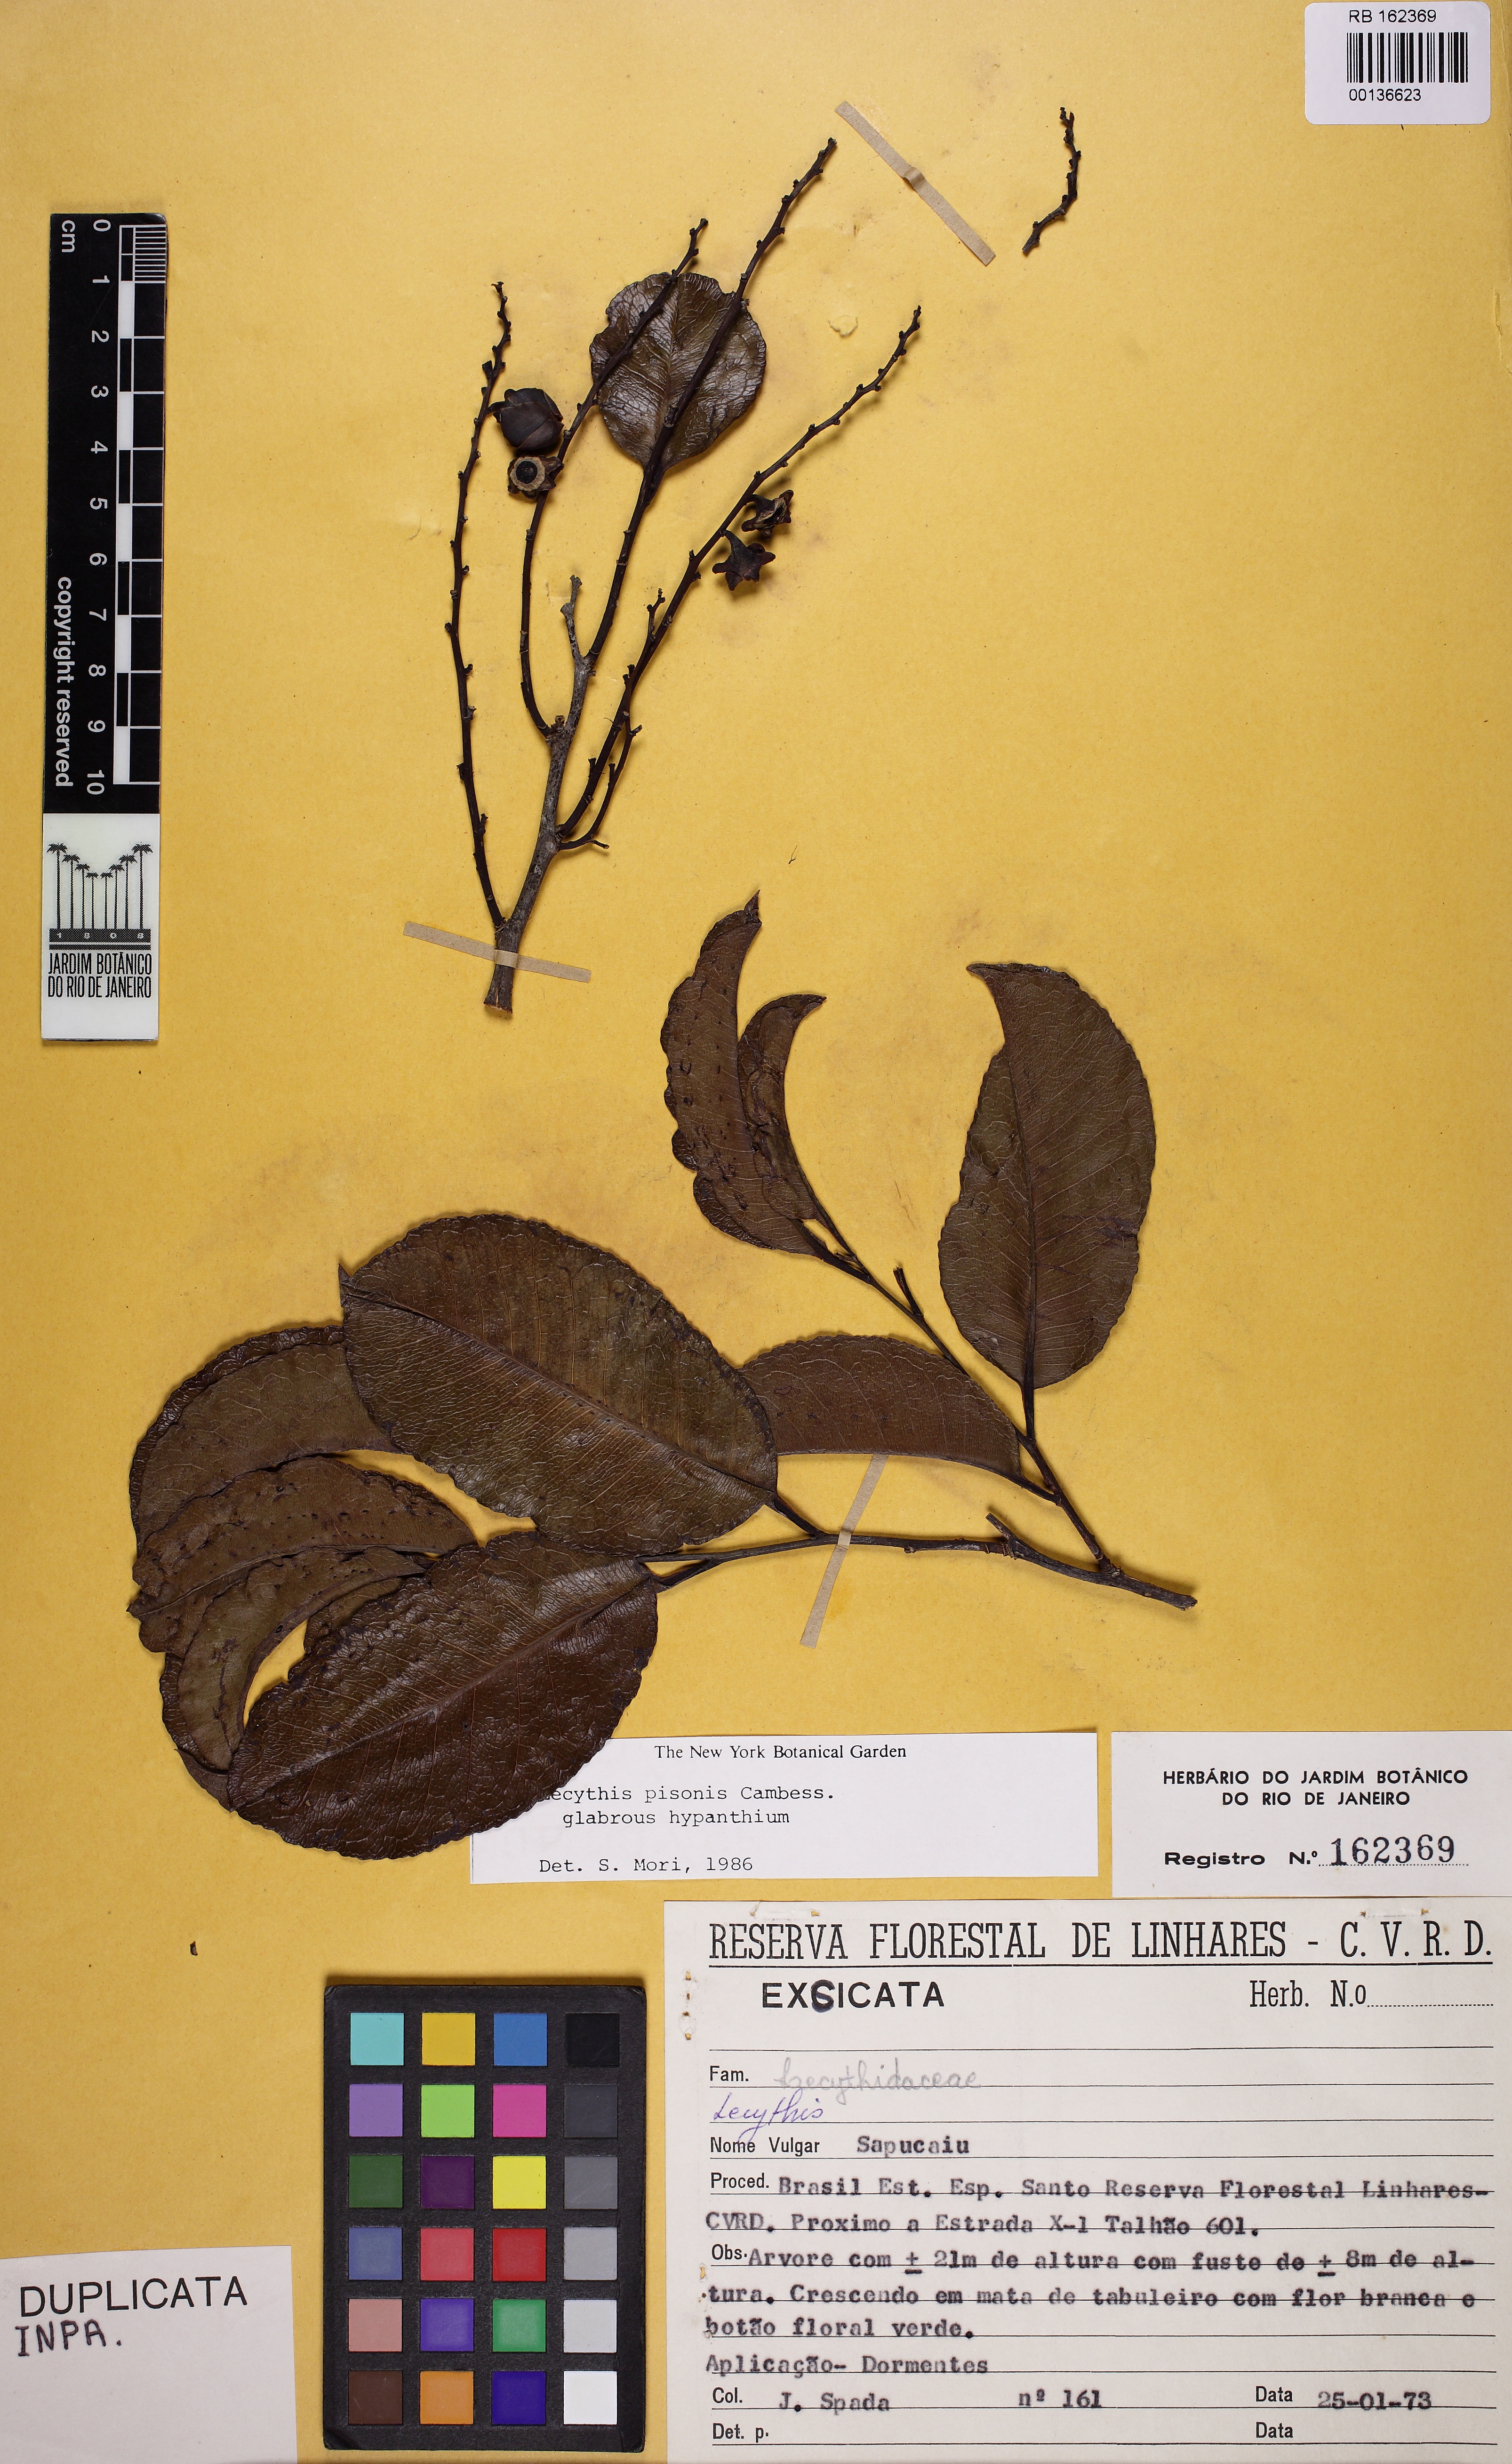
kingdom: Plantae
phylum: Tracheophyta
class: Magnoliopsida
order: Ericales
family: Lecythidaceae
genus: Lecythis
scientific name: Lecythis pisonis
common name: Paradise-nut
